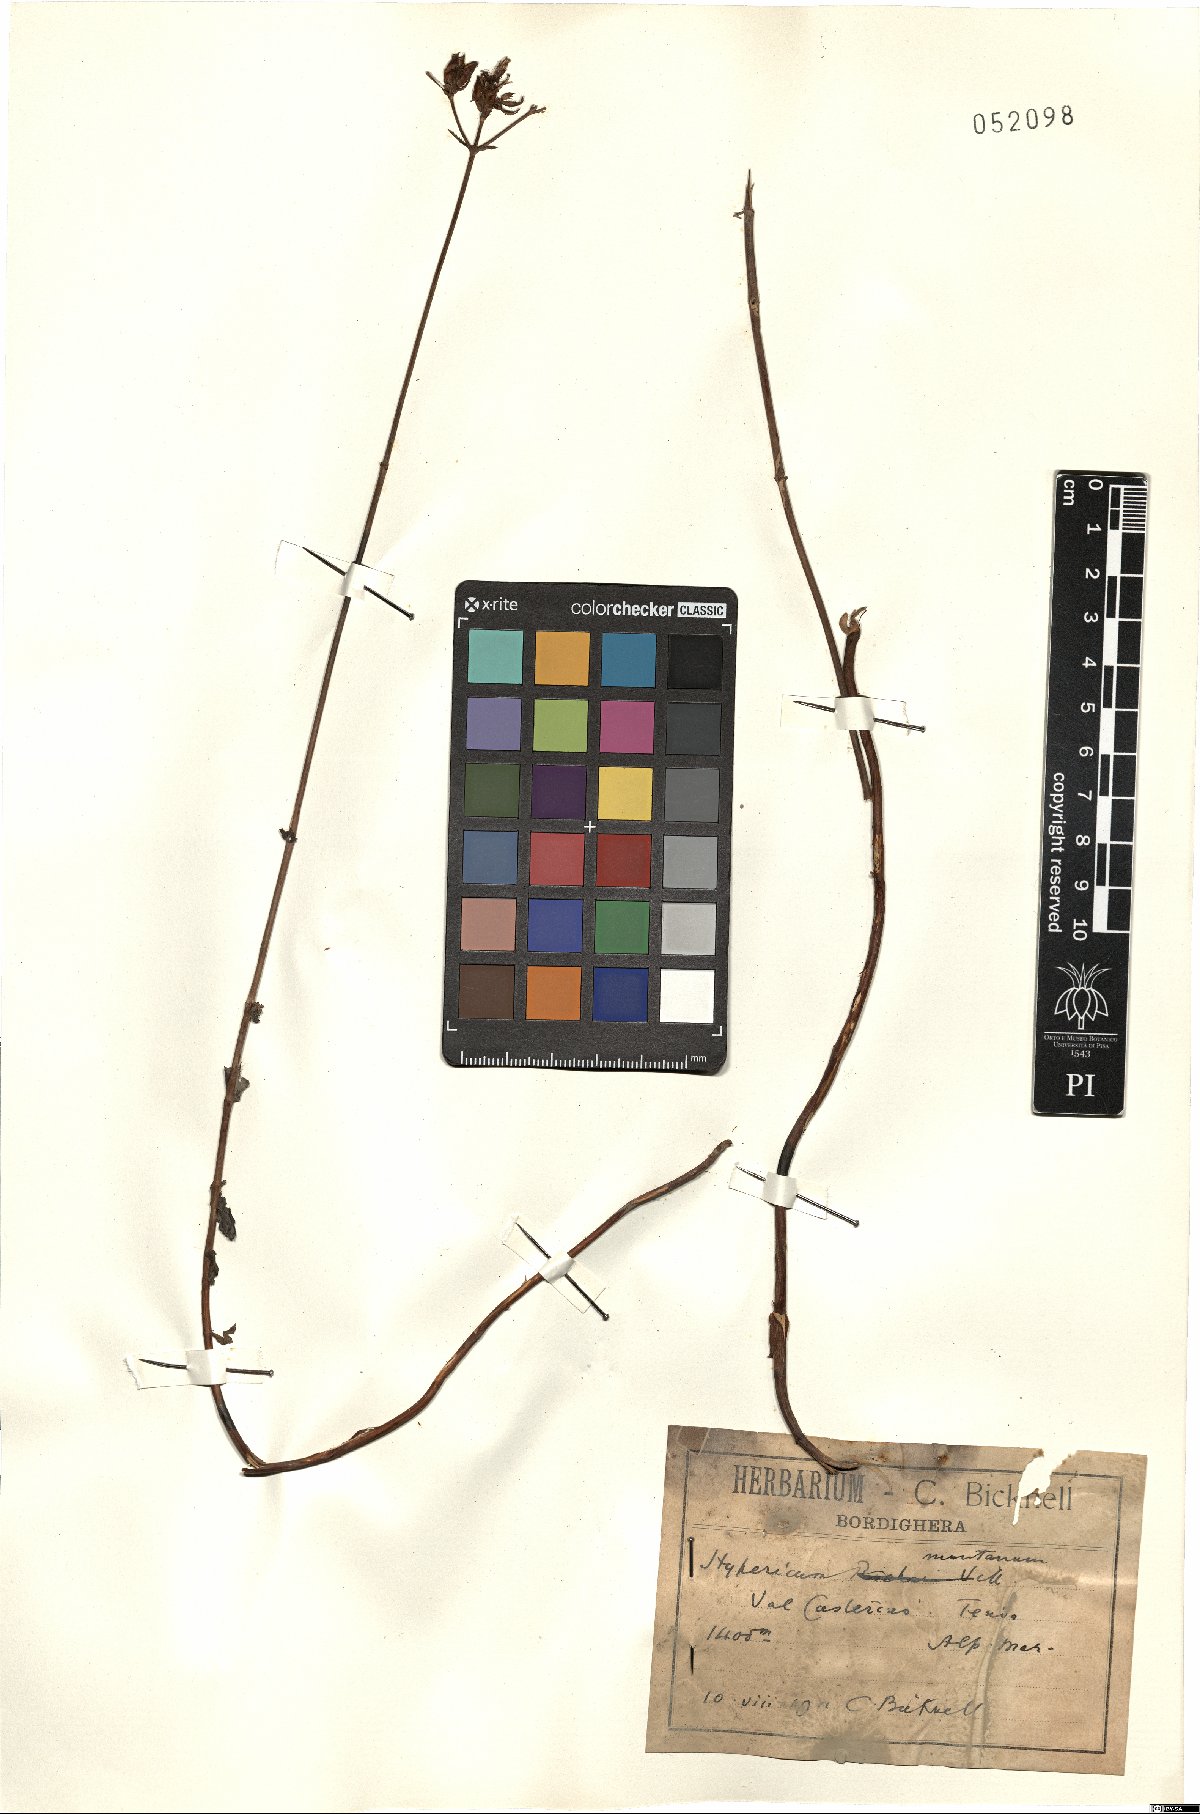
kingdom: Plantae
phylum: Tracheophyta
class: Magnoliopsida
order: Malpighiales
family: Hypericaceae
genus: Hypericum
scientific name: Hypericum montanum
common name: Pale st. john's-wort
